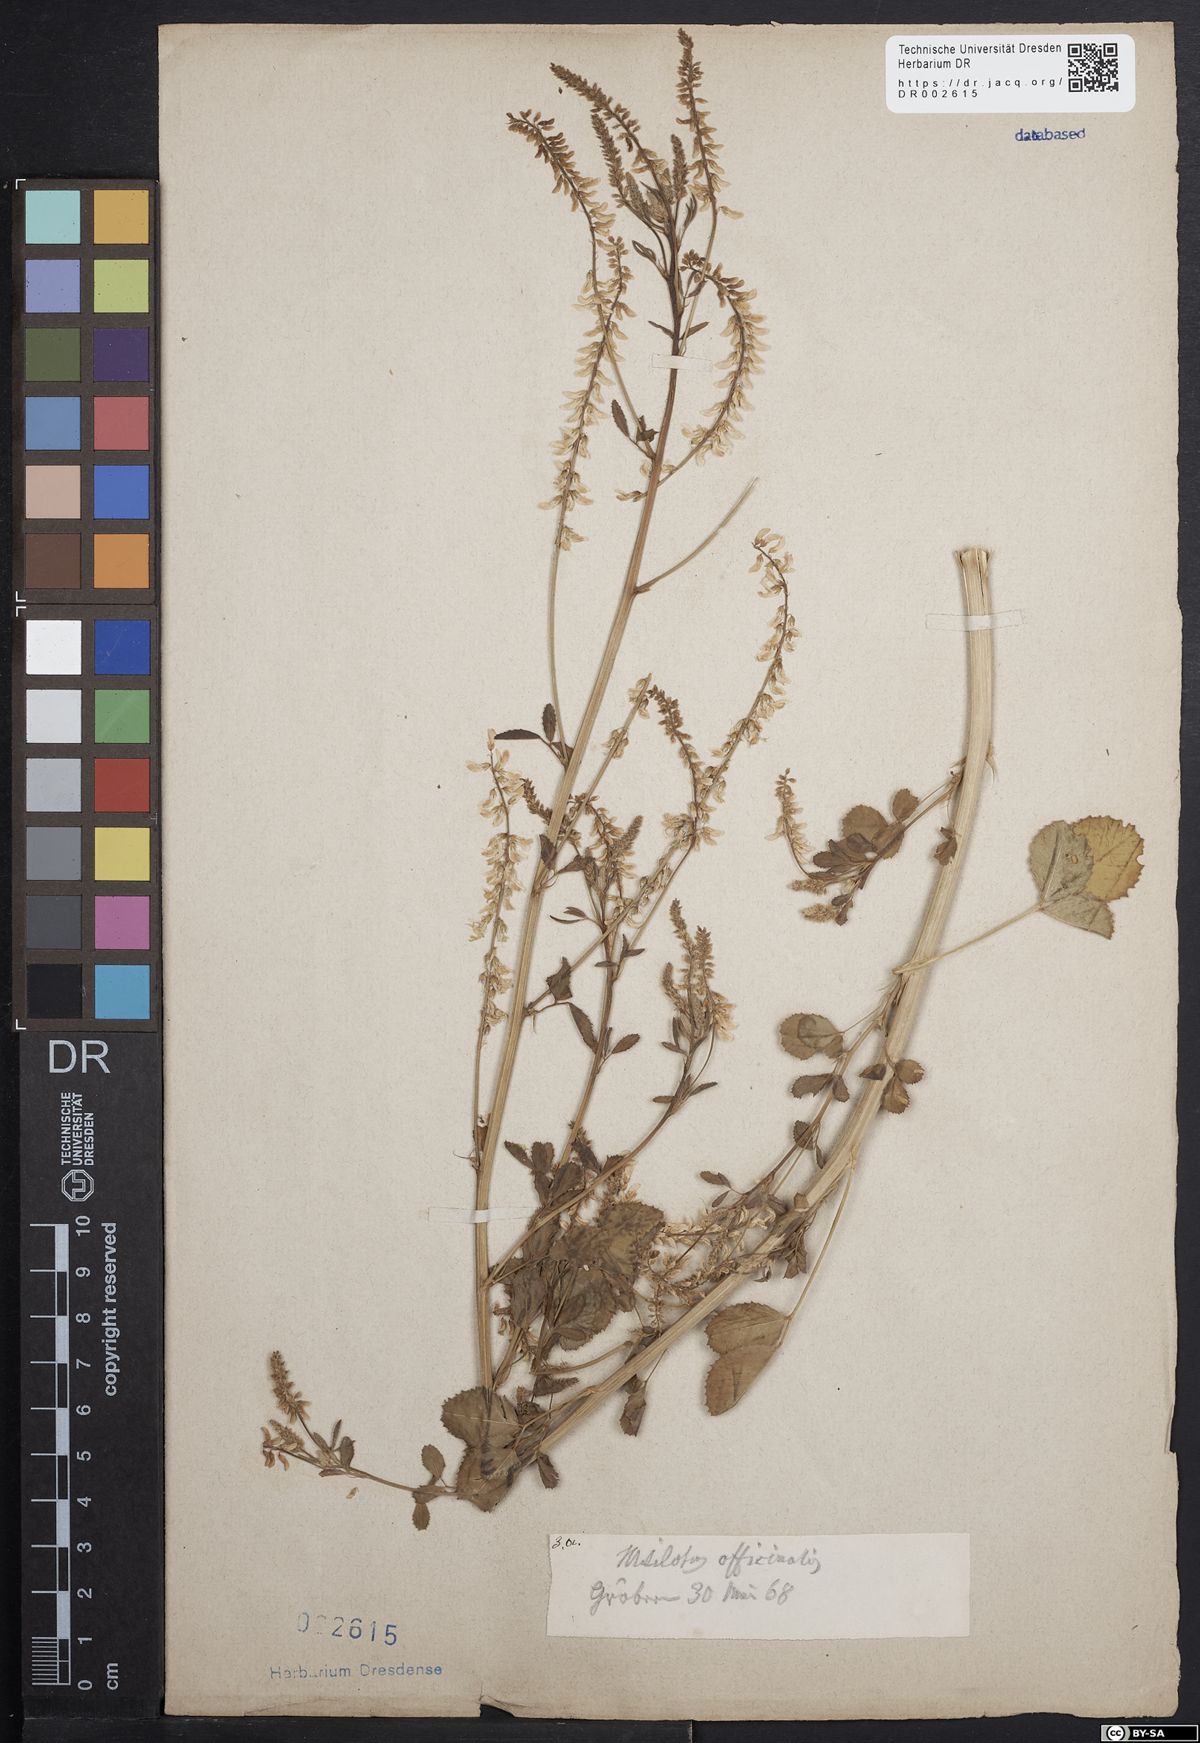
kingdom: Plantae
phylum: Tracheophyta
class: Magnoliopsida
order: Fabales
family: Fabaceae
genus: Melilotus
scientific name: Melilotus officinalis
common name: Sweetclover
